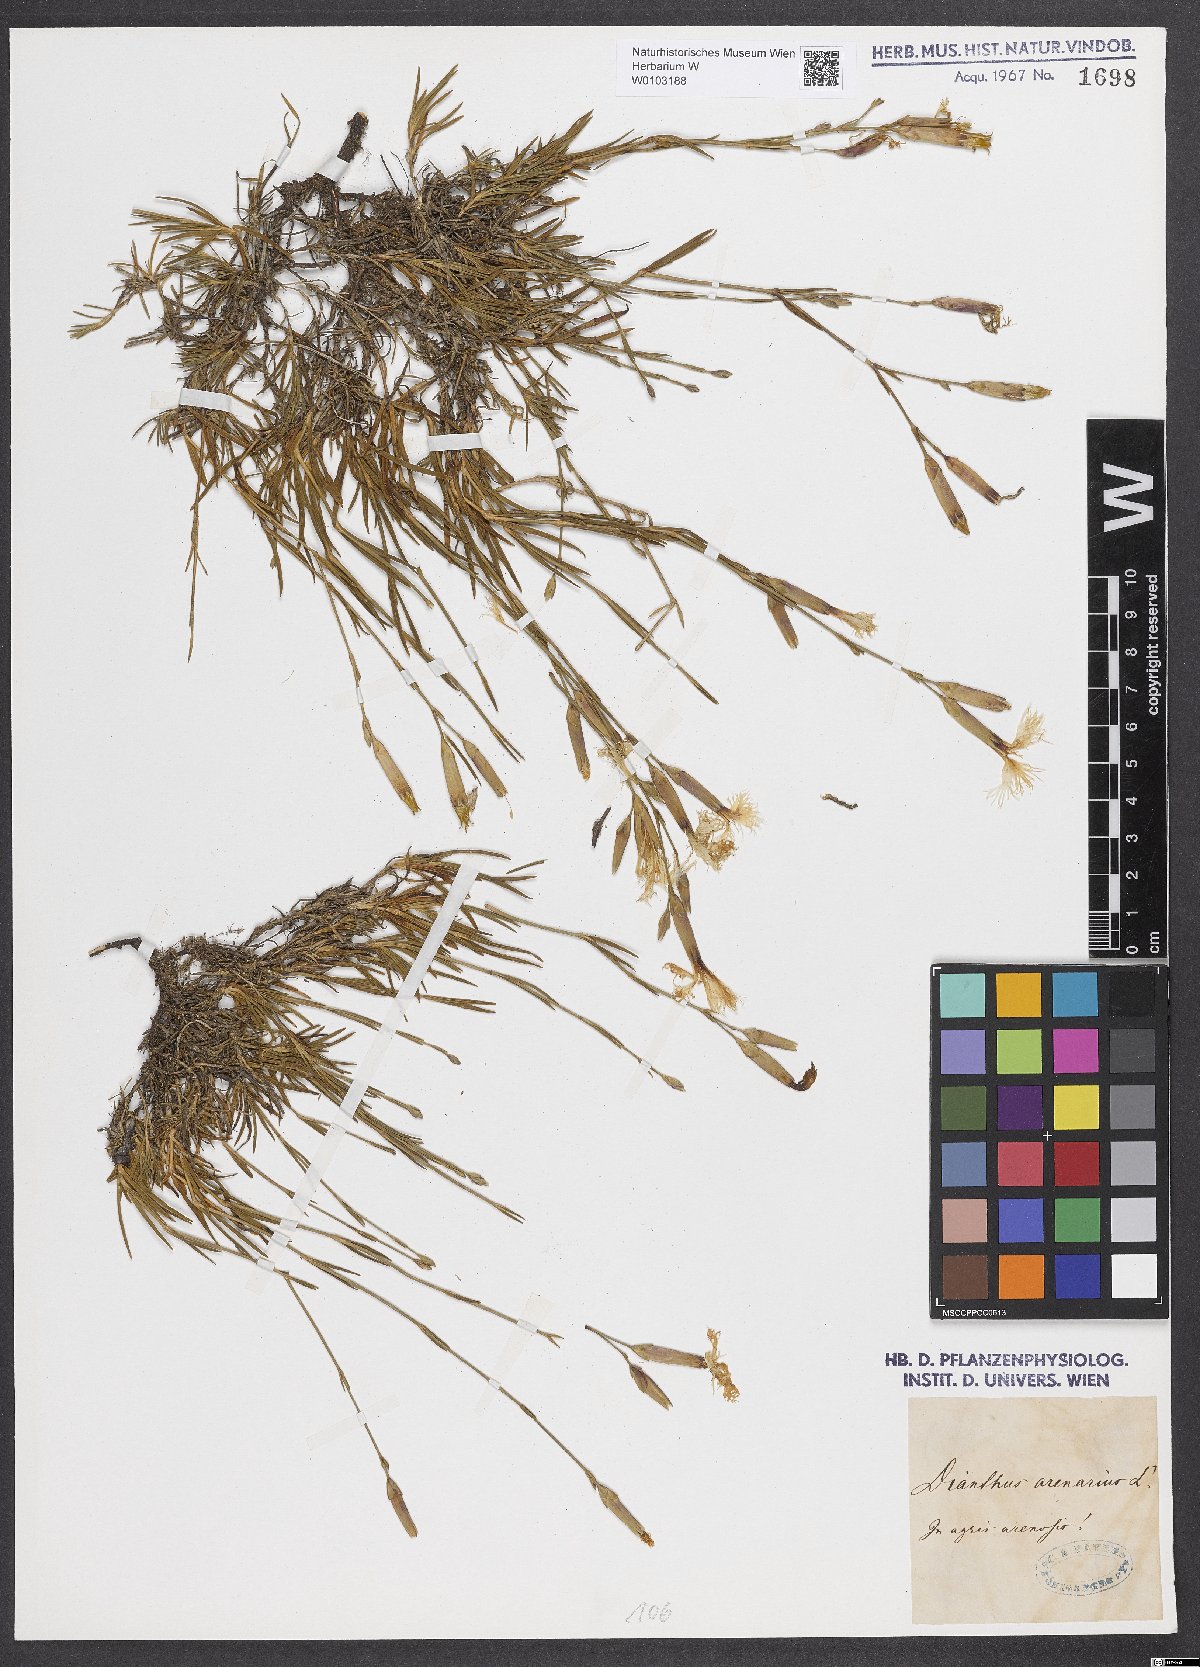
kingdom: Plantae
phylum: Tracheophyta
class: Magnoliopsida
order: Caryophyllales
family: Caryophyllaceae
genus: Dianthus
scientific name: Dianthus arenarius
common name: Stone pink
